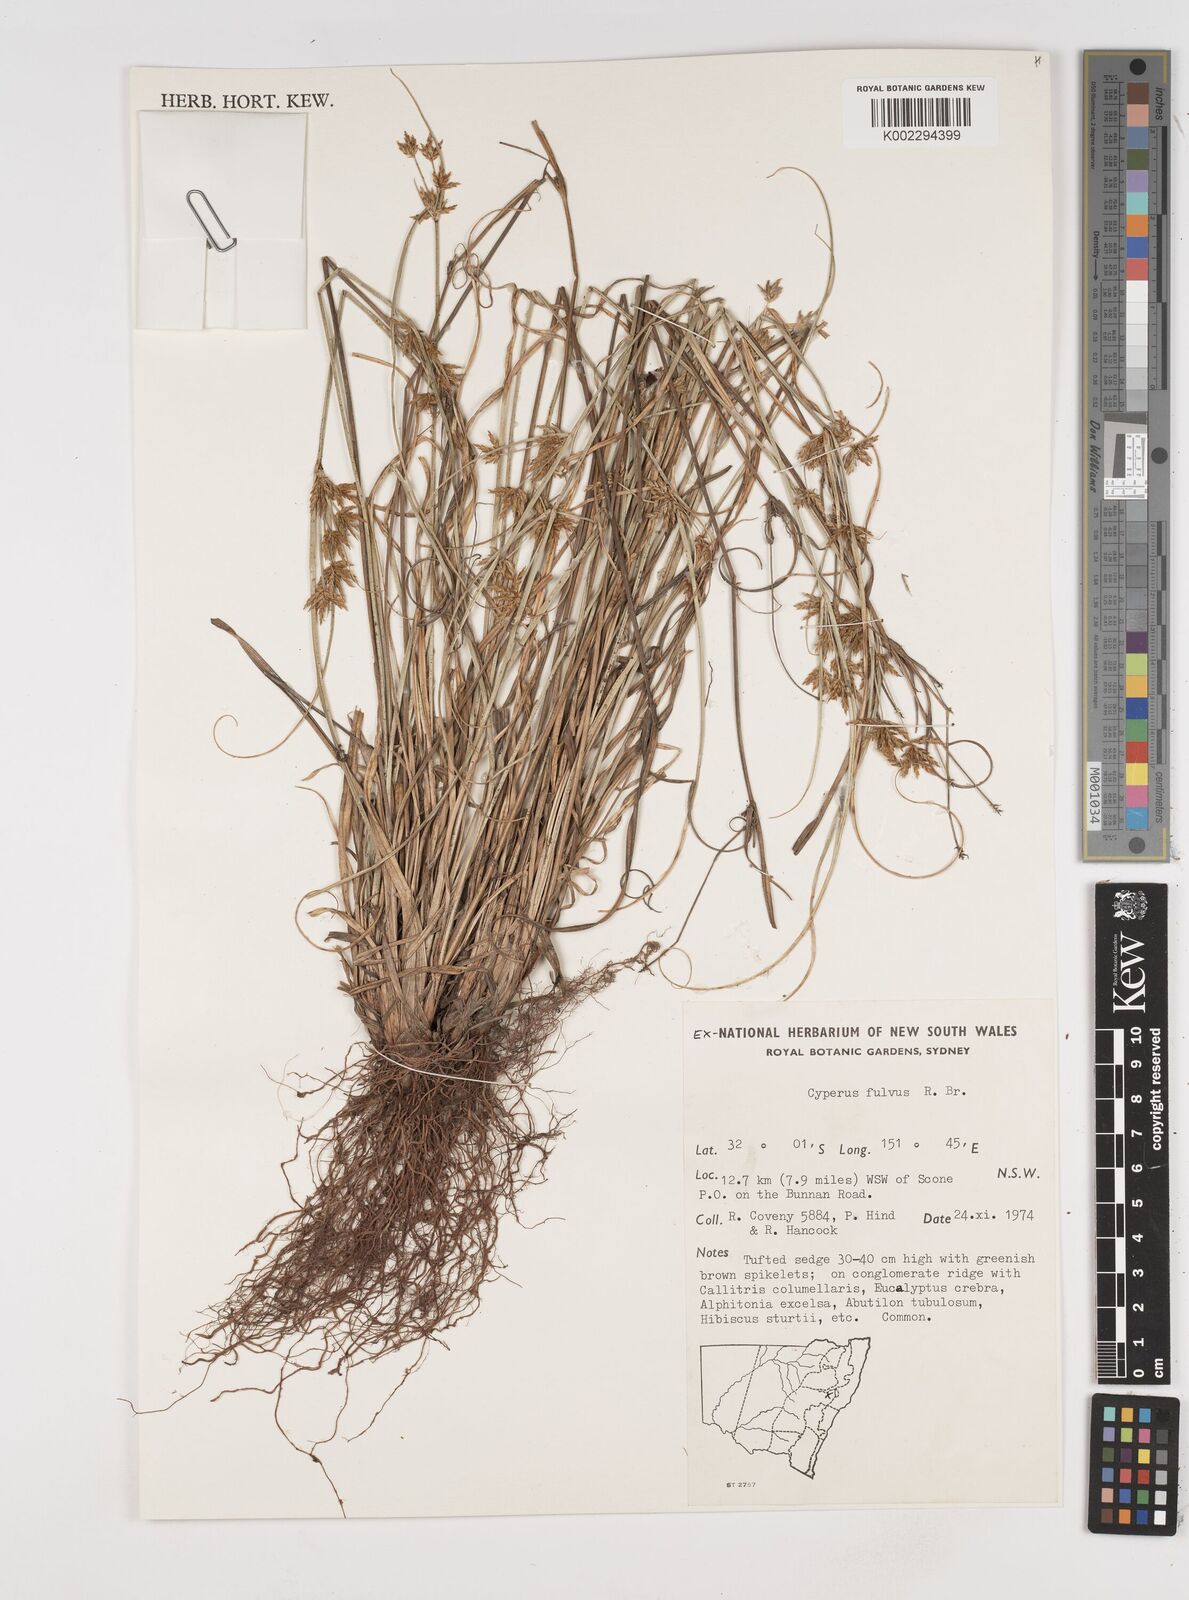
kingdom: Plantae
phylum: Tracheophyta
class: Liliopsida
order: Poales
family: Cyperaceae
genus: Cyperus
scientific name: Cyperus fulvus
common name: Sticky sedge
